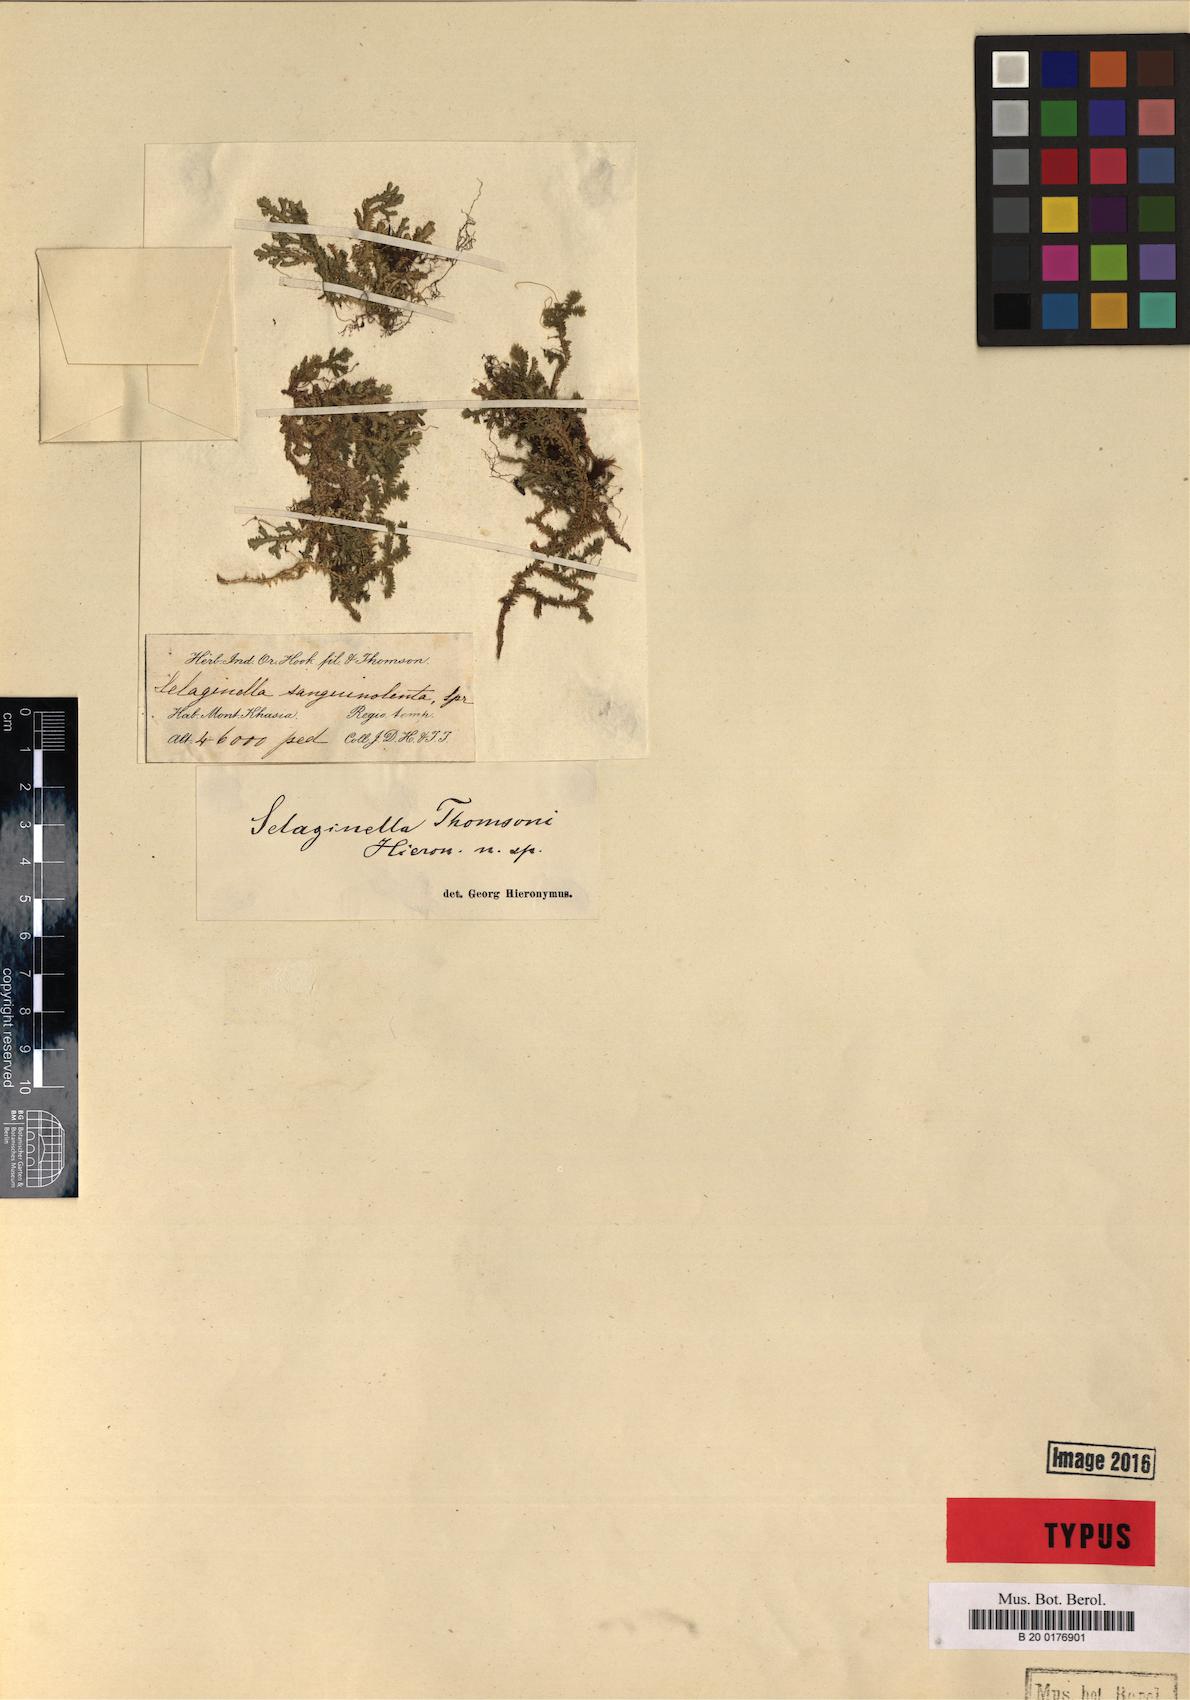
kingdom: Plantae
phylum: Tracheophyta
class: Lycopodiopsida
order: Selaginellales
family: Selaginellaceae
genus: Selaginella
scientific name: Selaginella vaginata
